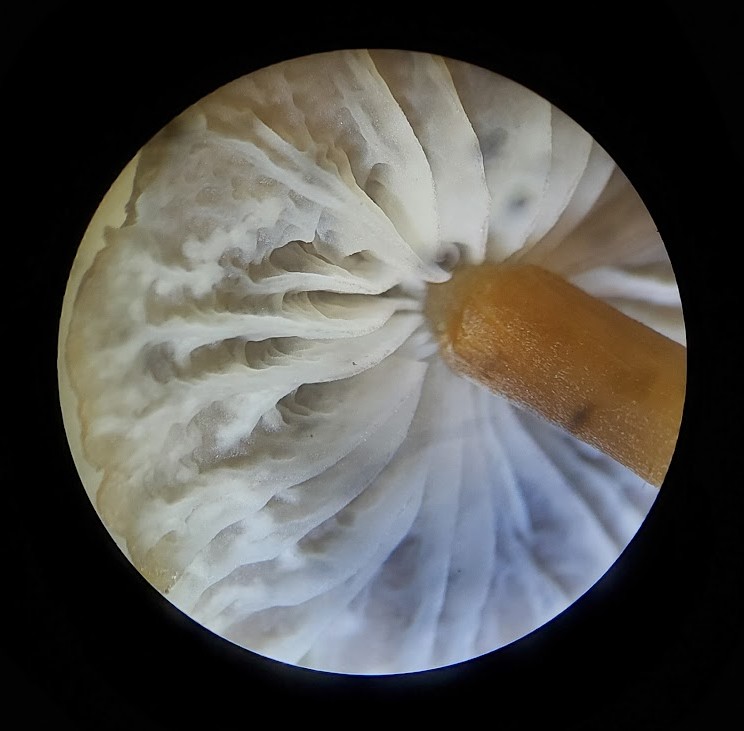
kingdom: Fungi
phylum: Basidiomycota
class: Agaricomycetes
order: Agaricales
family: Mycenaceae
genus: Mycena
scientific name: Mycena olivaceomarginata
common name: brunægget huesvamp
